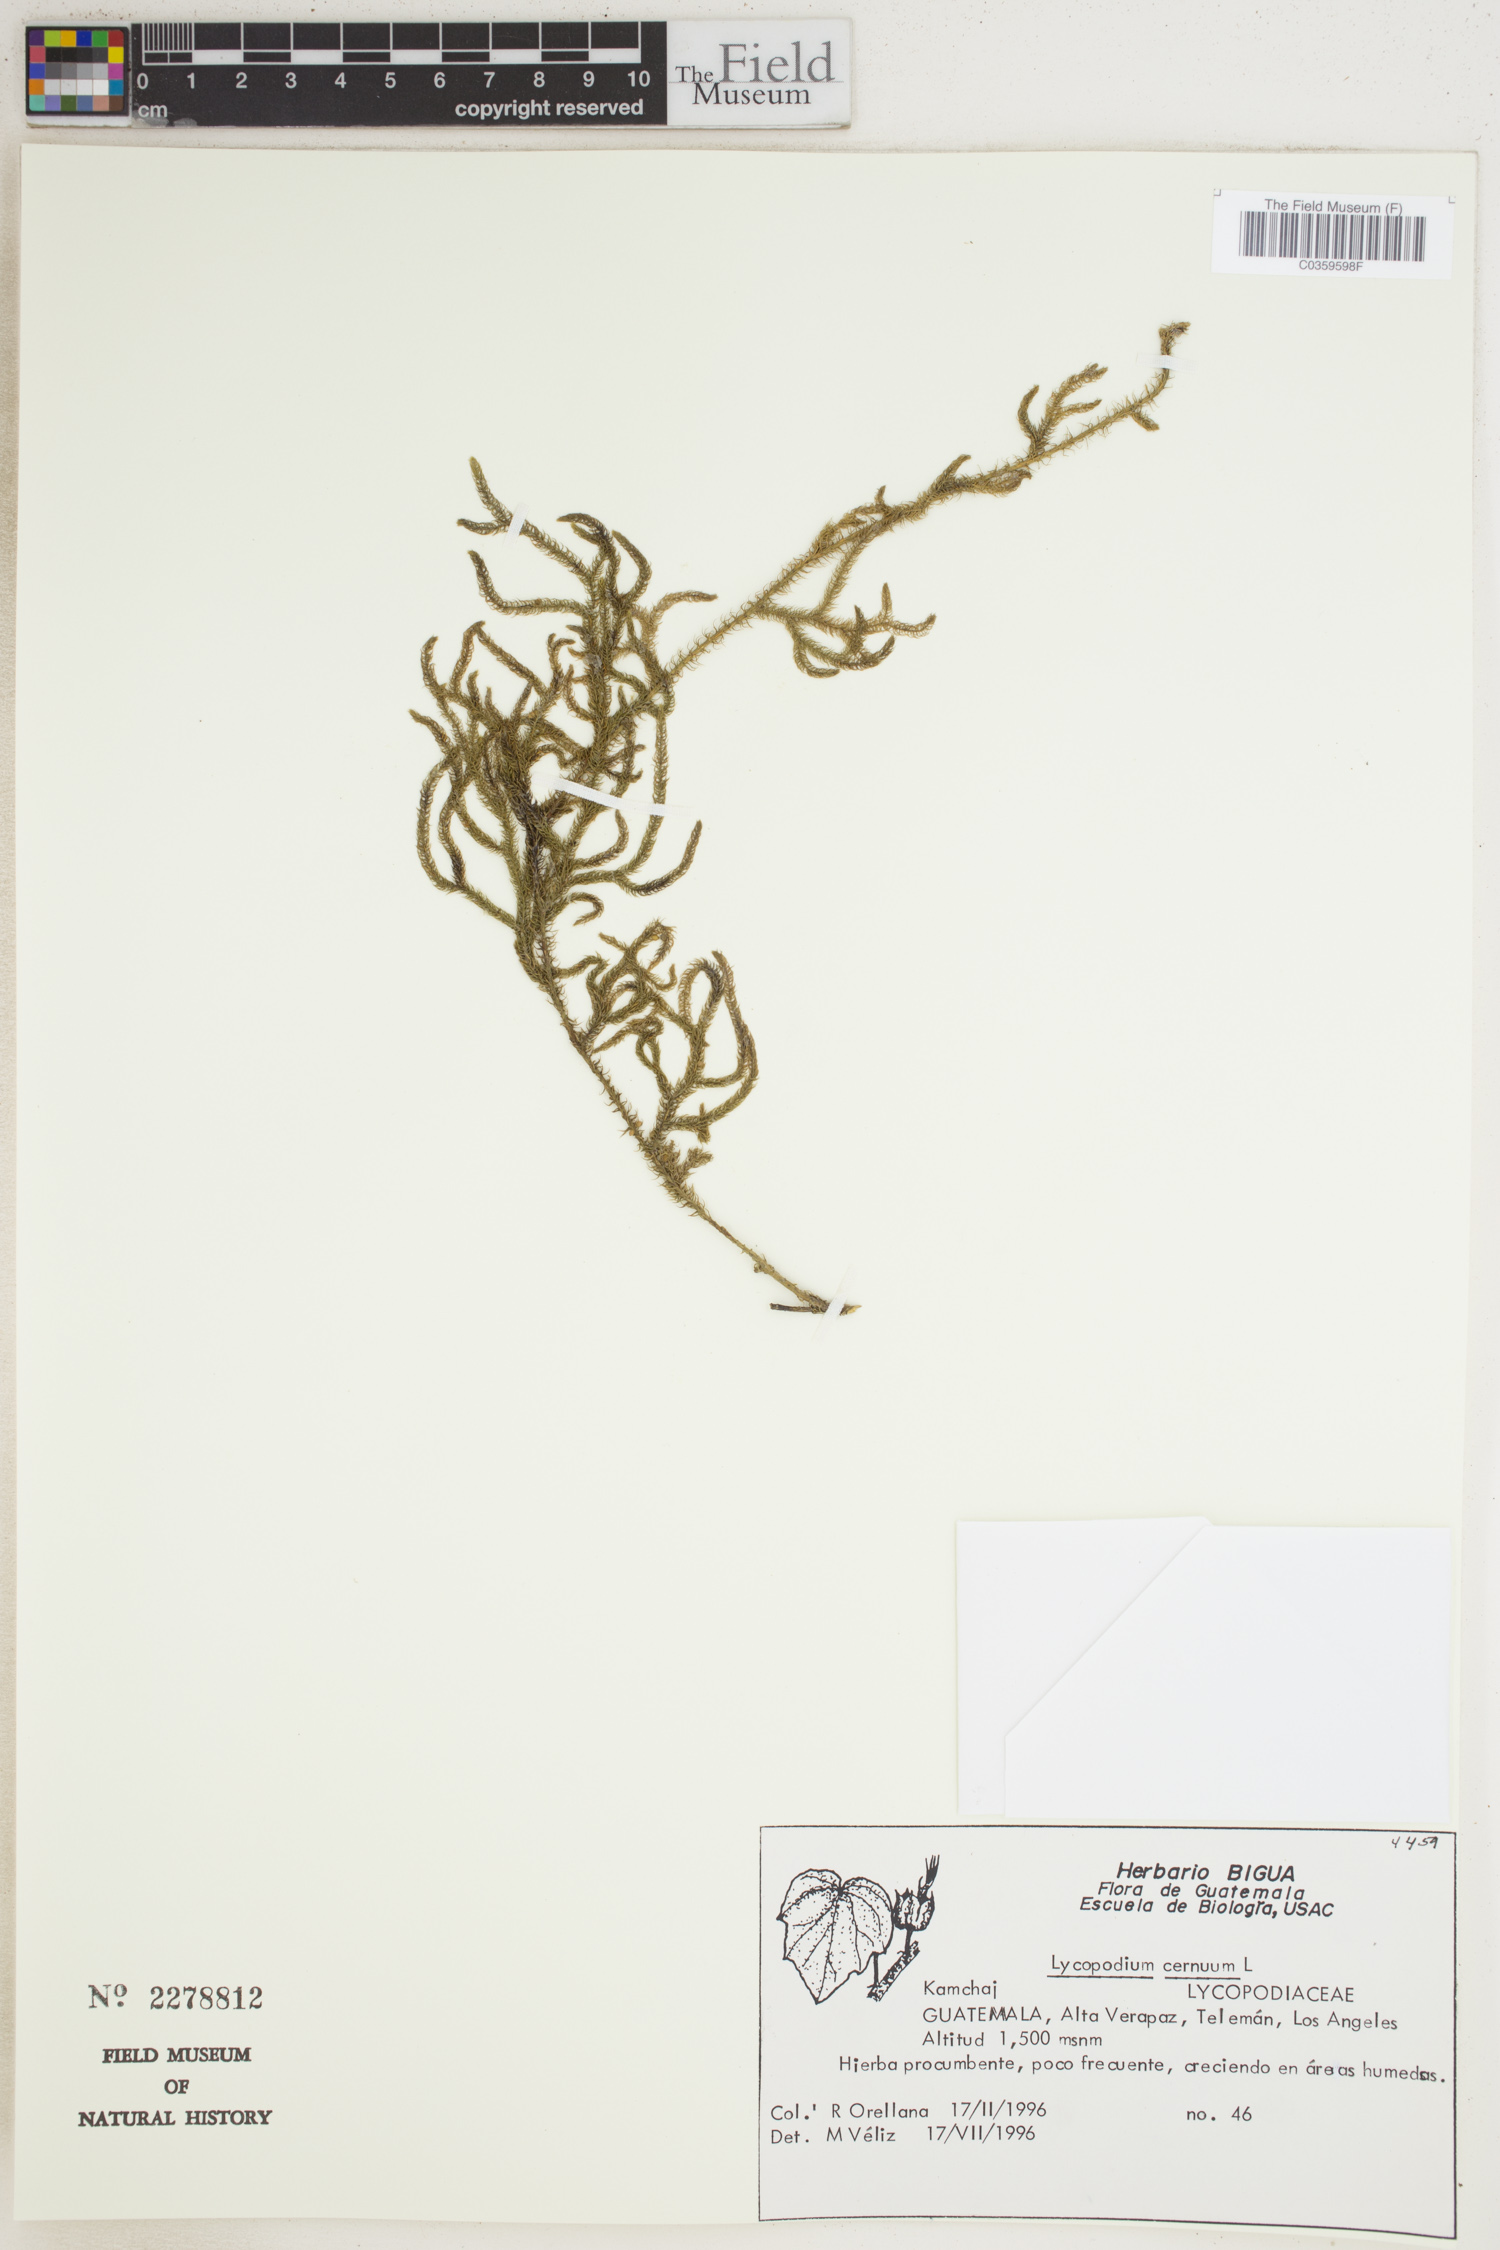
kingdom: Plantae
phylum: Tracheophyta
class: Lycopodiopsida
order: Lycopodiales
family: Lycopodiaceae
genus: Palhinhaea
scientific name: Palhinhaea cernua
